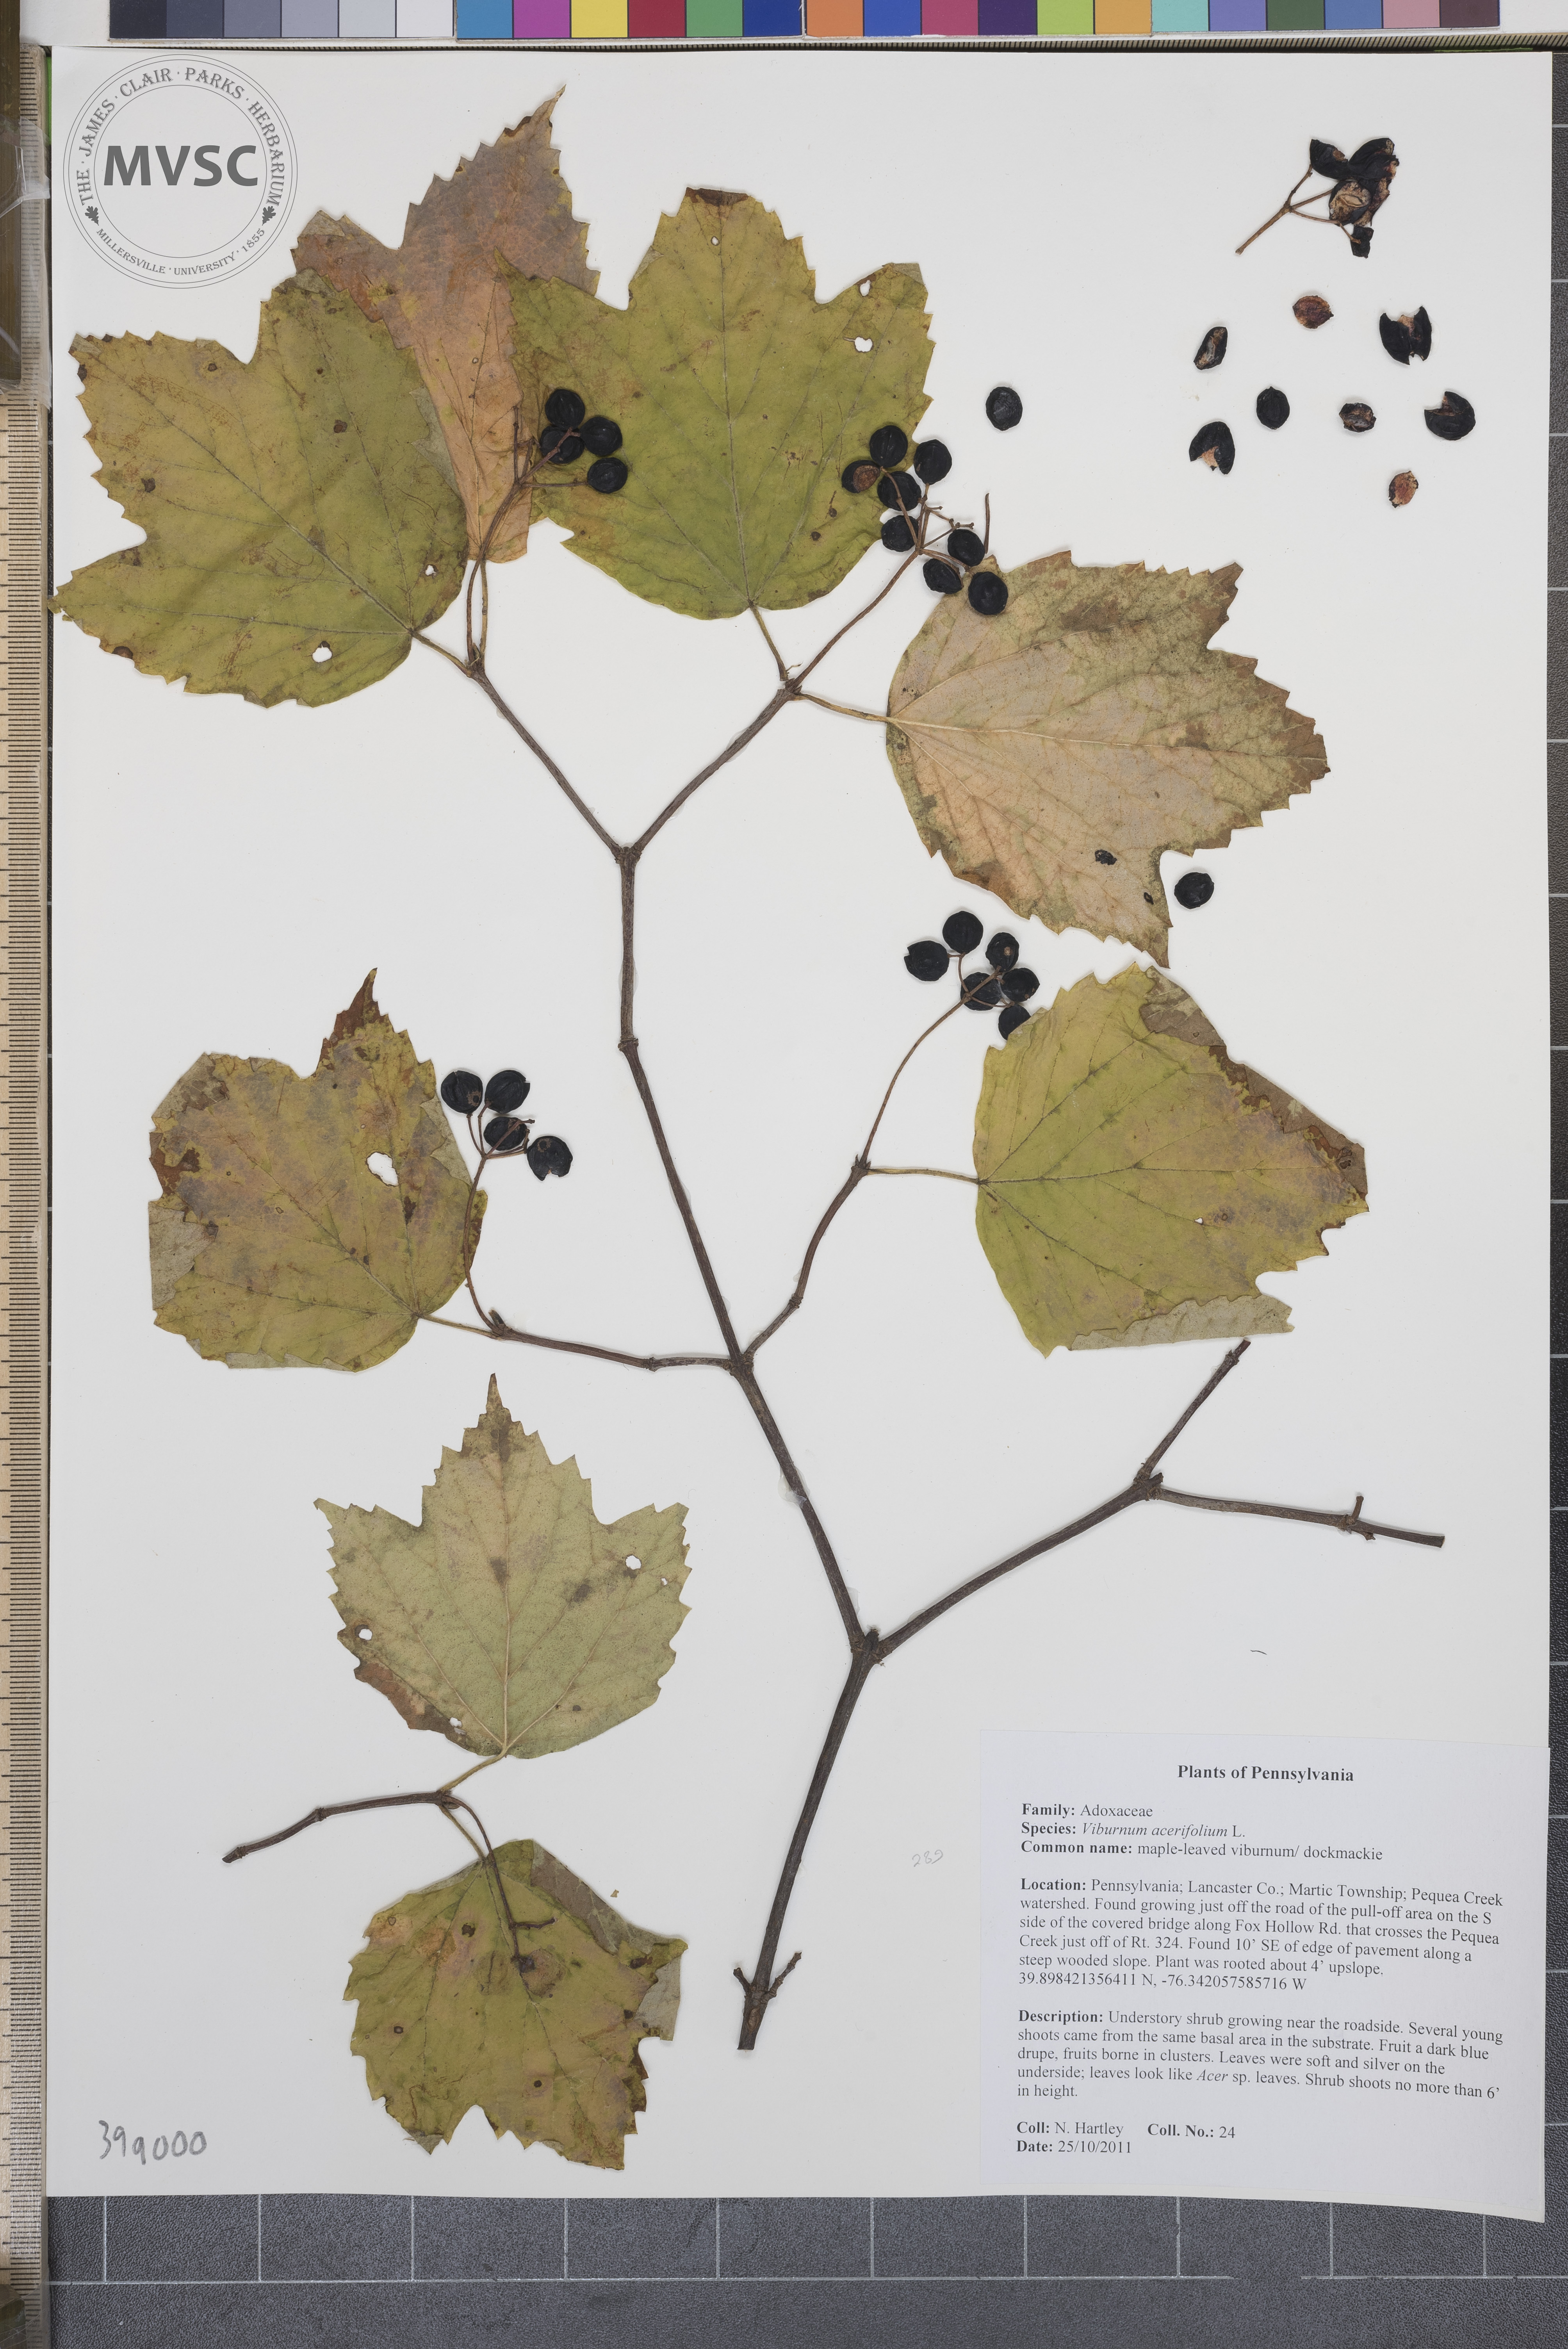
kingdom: Plantae
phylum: Tracheophyta
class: Magnoliopsida
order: Dipsacales
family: Viburnaceae
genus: Viburnum
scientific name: Viburnum acerifolium
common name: Maple-leaved viburnum
